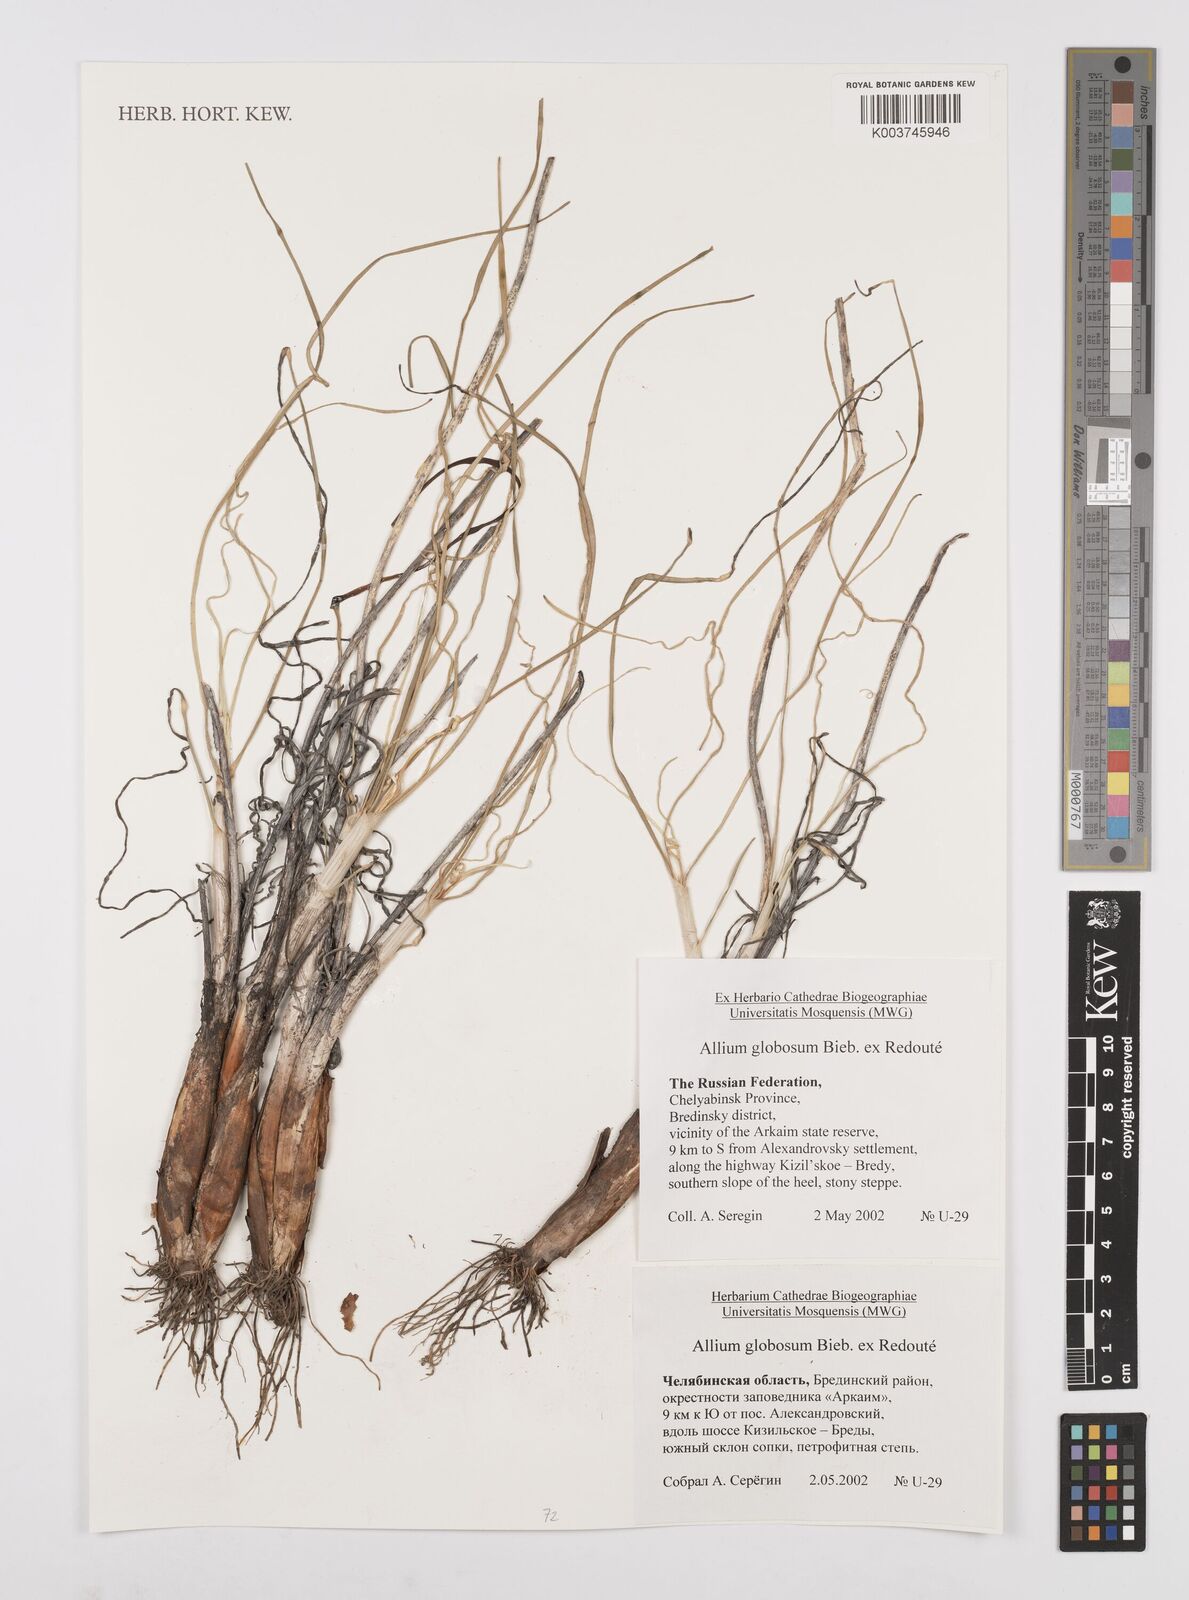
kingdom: Plantae
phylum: Tracheophyta
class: Liliopsida
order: Asparagales
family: Amaryllidaceae
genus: Allium
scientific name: Allium saxatile
